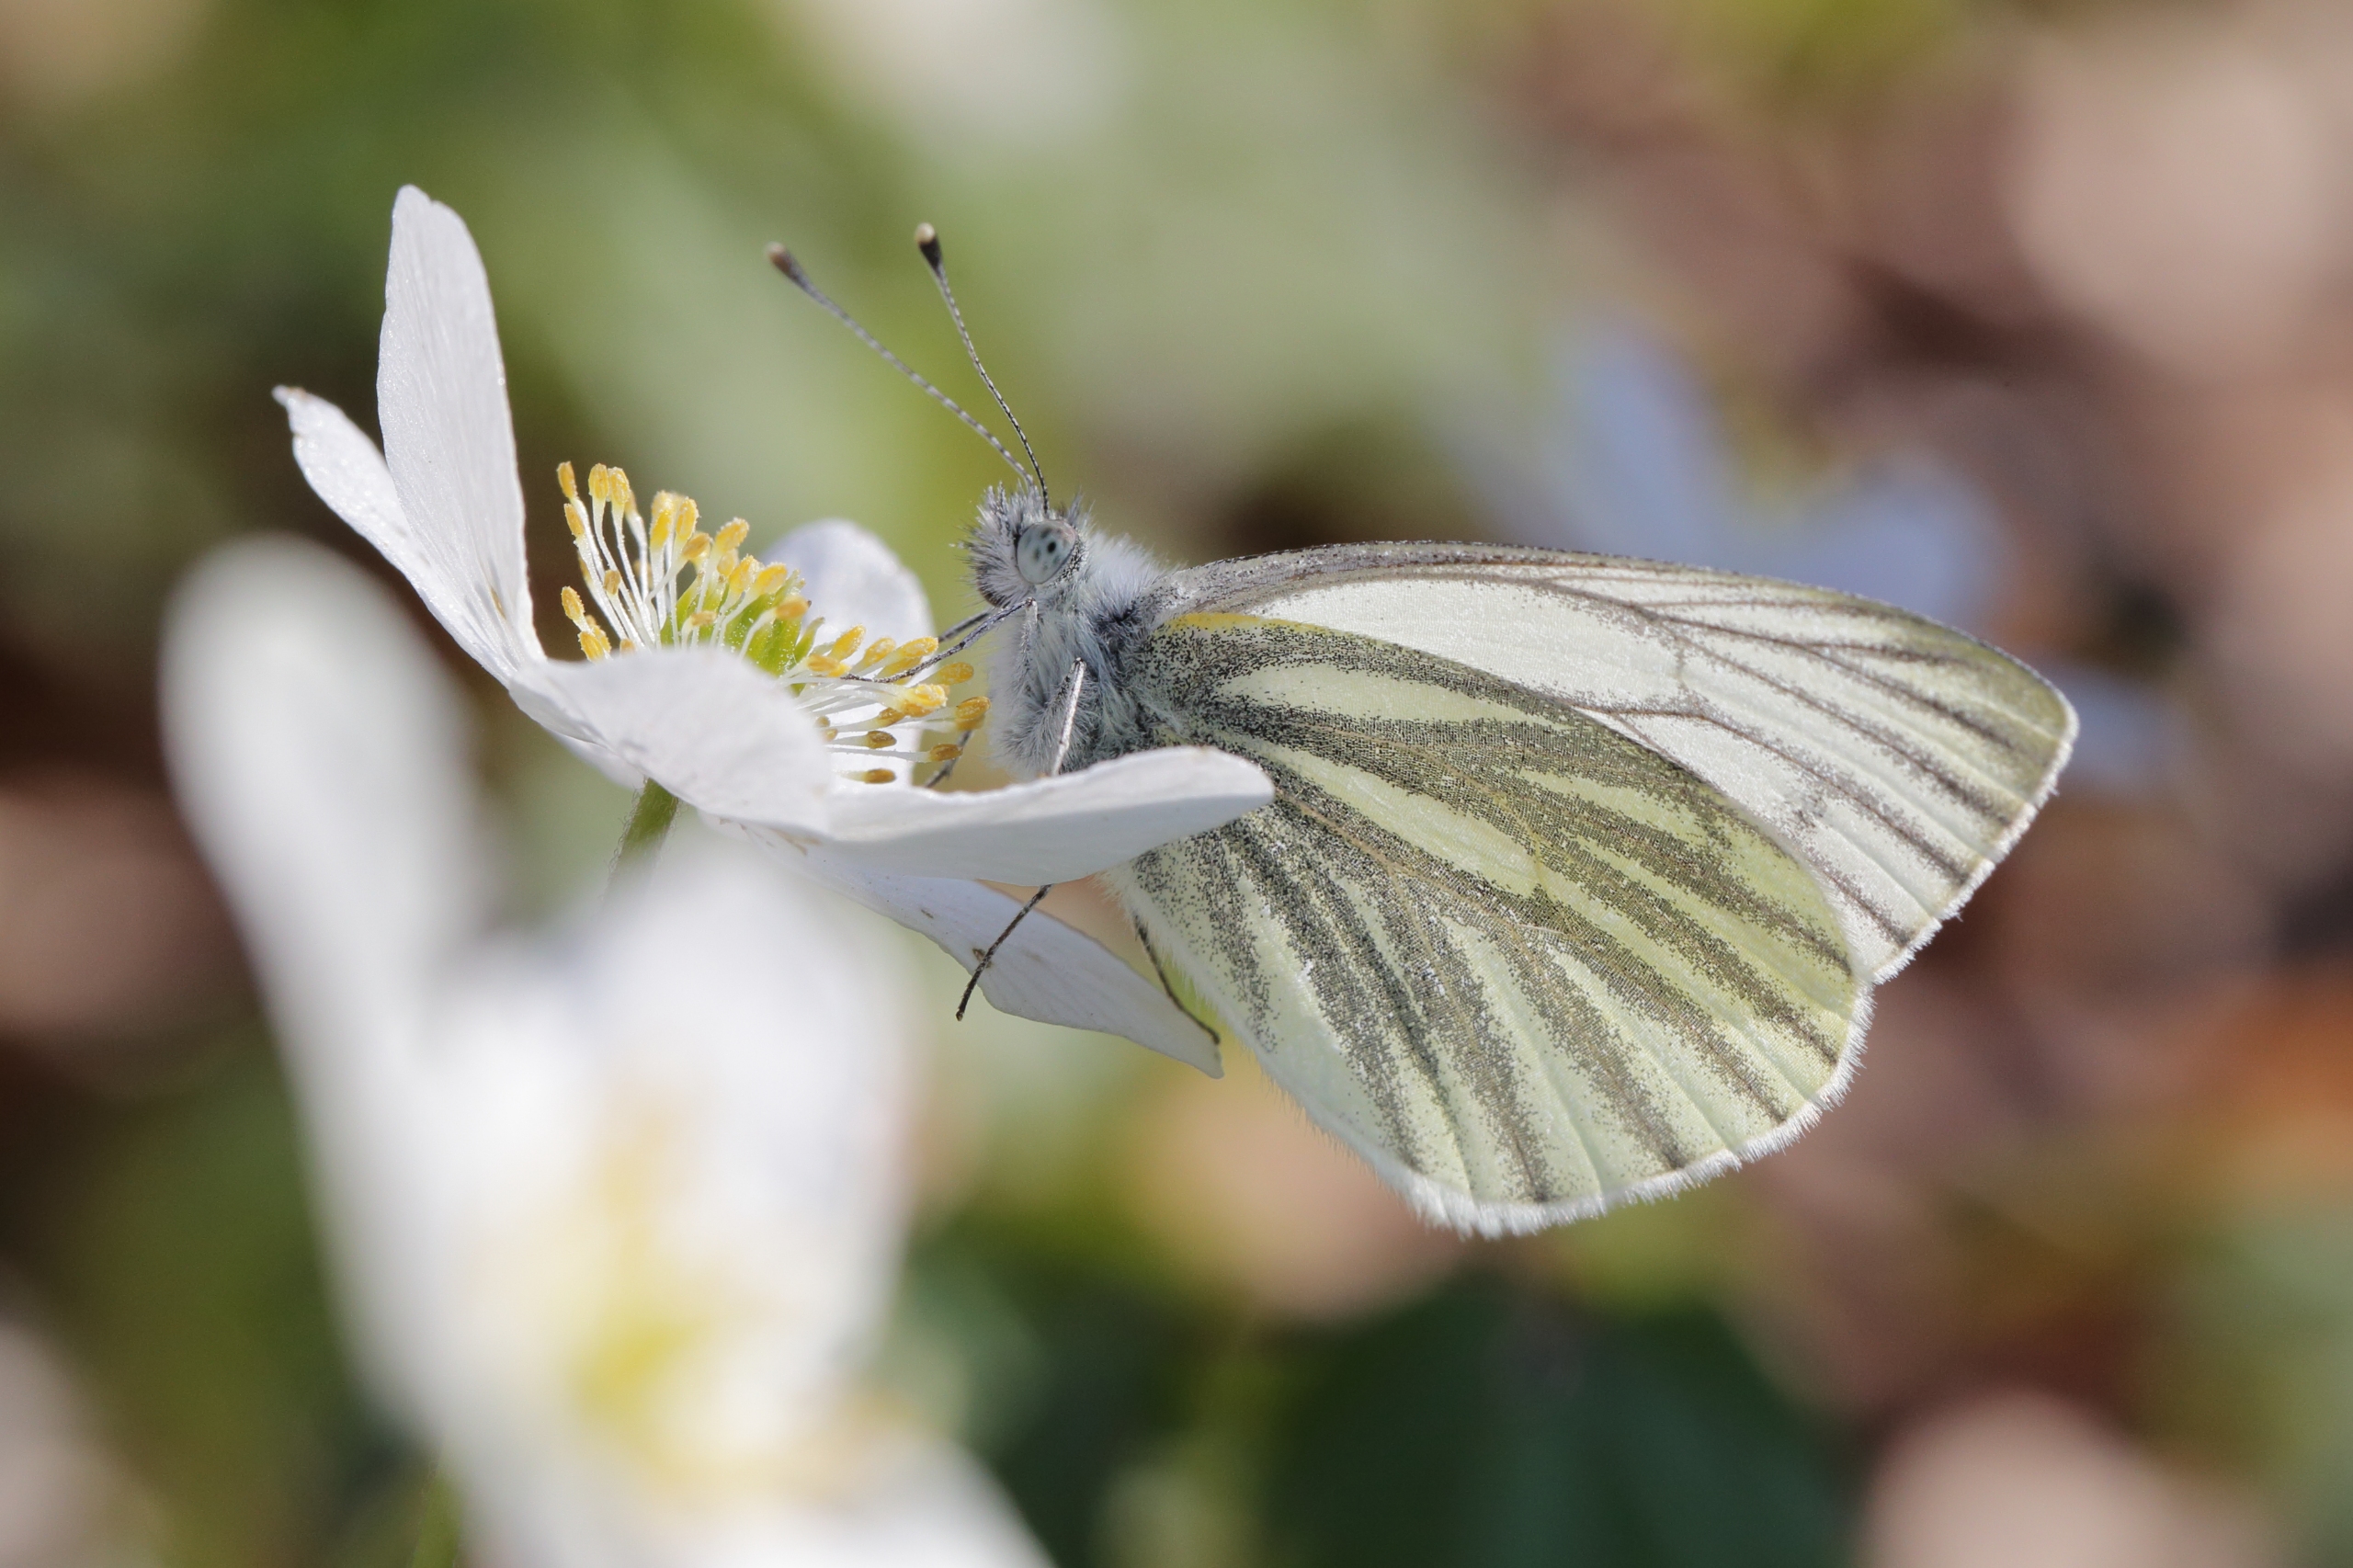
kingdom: Animalia
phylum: Arthropoda
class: Insecta
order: Lepidoptera
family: Pieridae
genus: Pieris
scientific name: Pieris napi
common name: Grønåret kålsommerfugl
